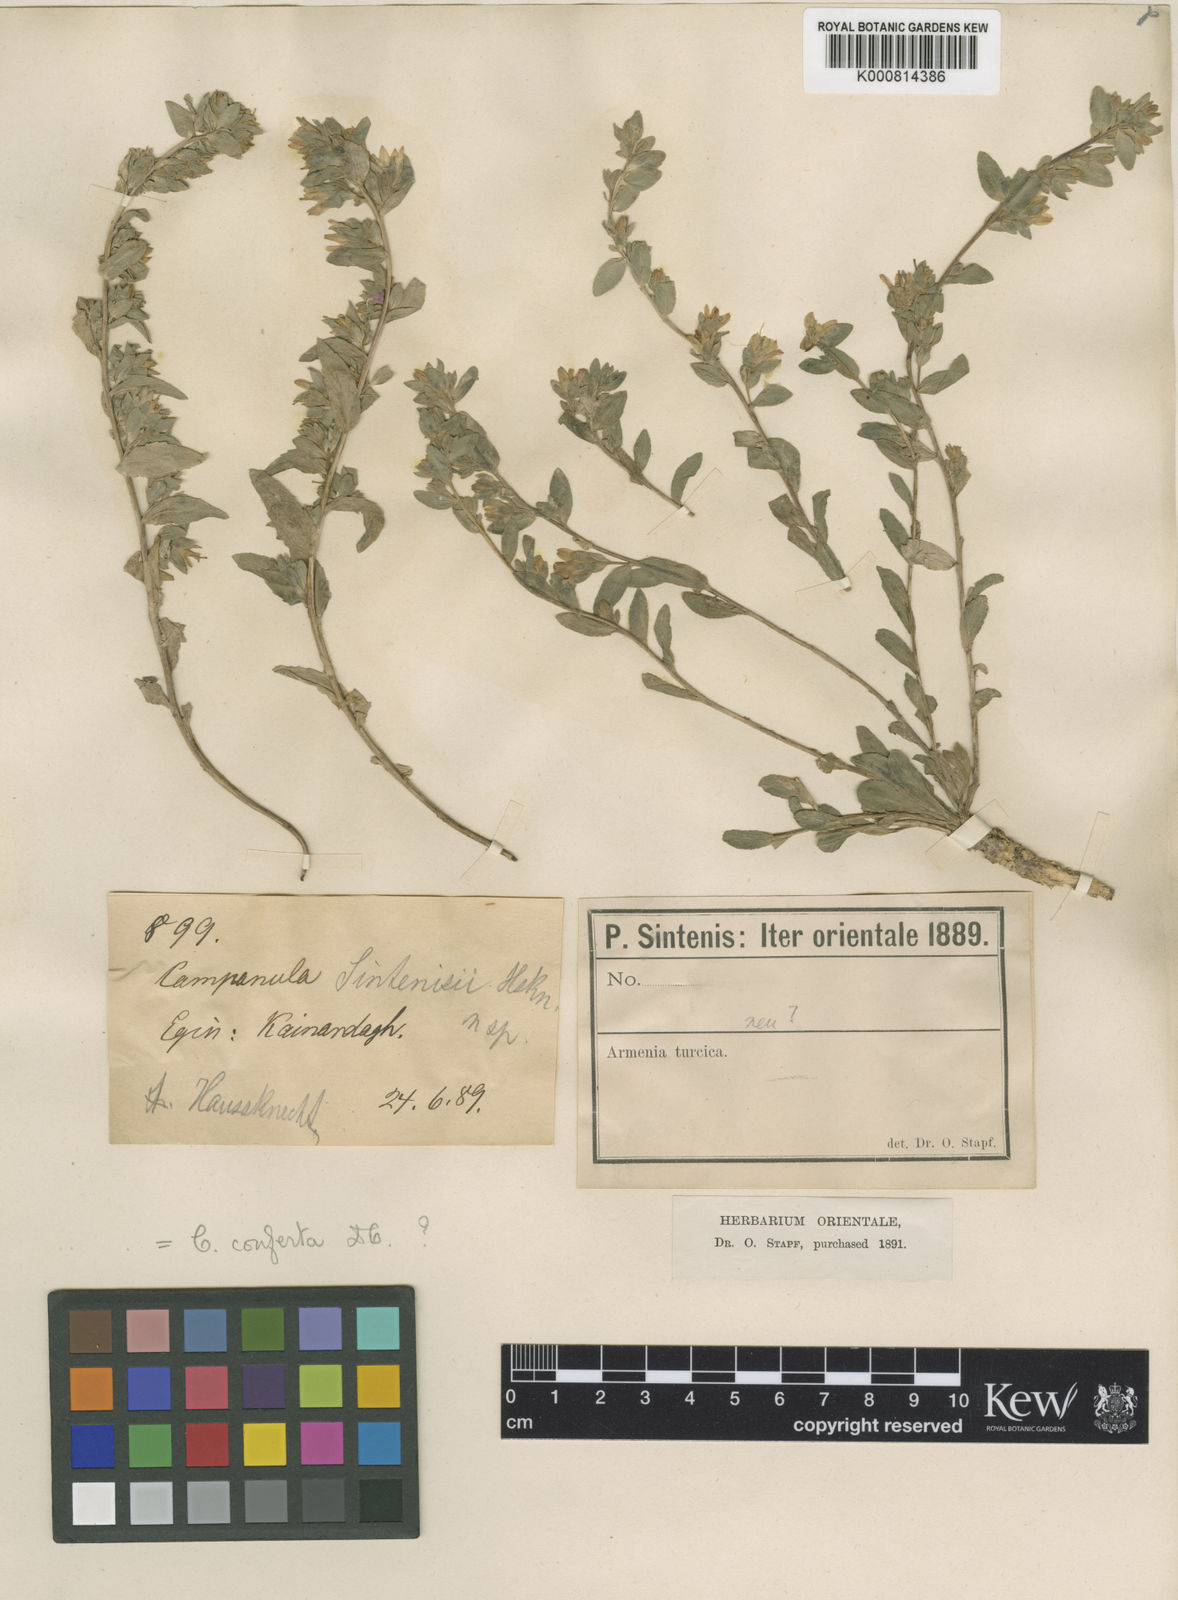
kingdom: Plantae
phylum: Tracheophyta
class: Magnoliopsida
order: Asterales
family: Campanulaceae
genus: Campanula
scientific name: Campanula conferta
